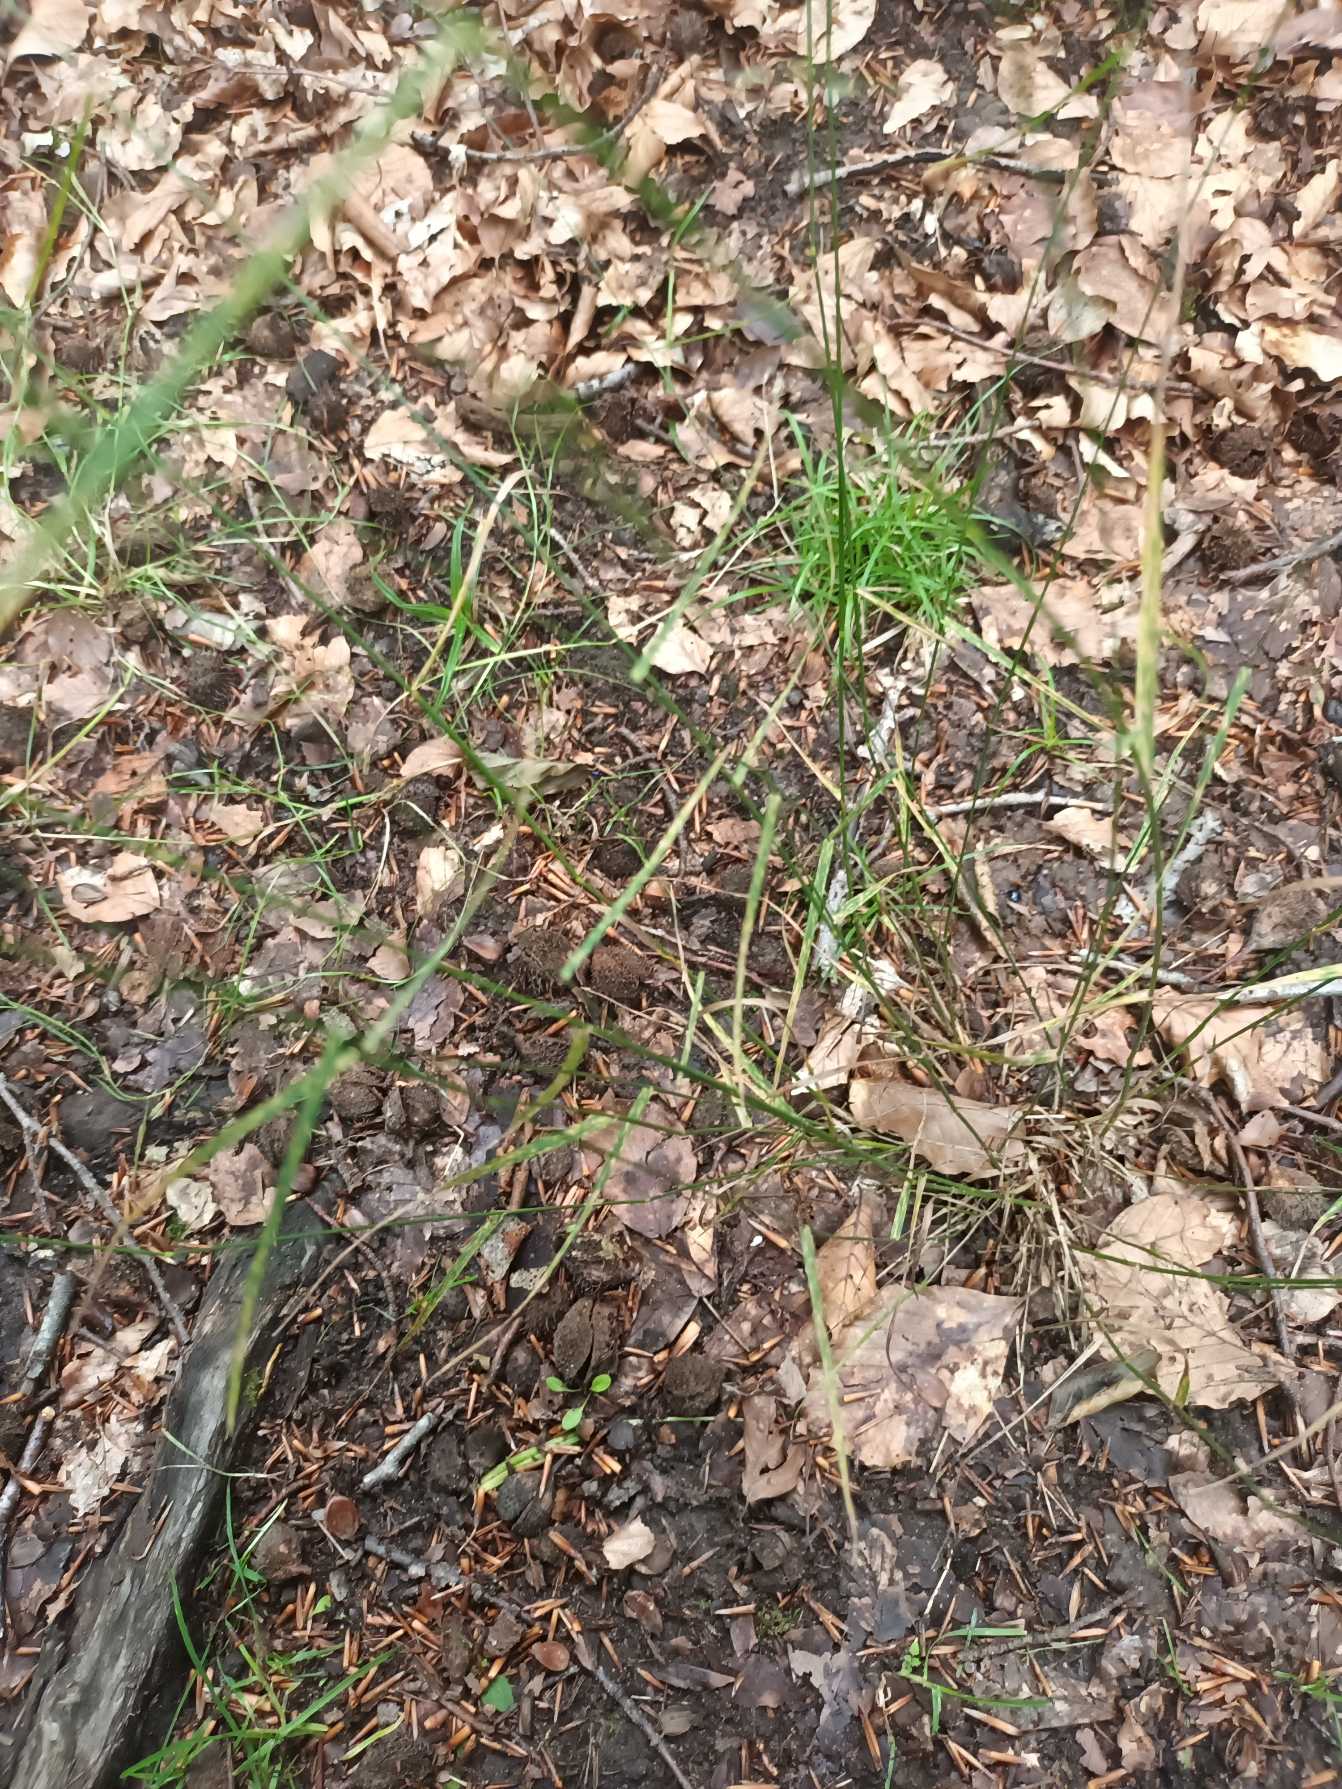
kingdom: Plantae
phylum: Tracheophyta
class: Liliopsida
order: Poales
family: Poaceae
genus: Poa
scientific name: Poa nemoralis
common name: Lund-rapgræs
